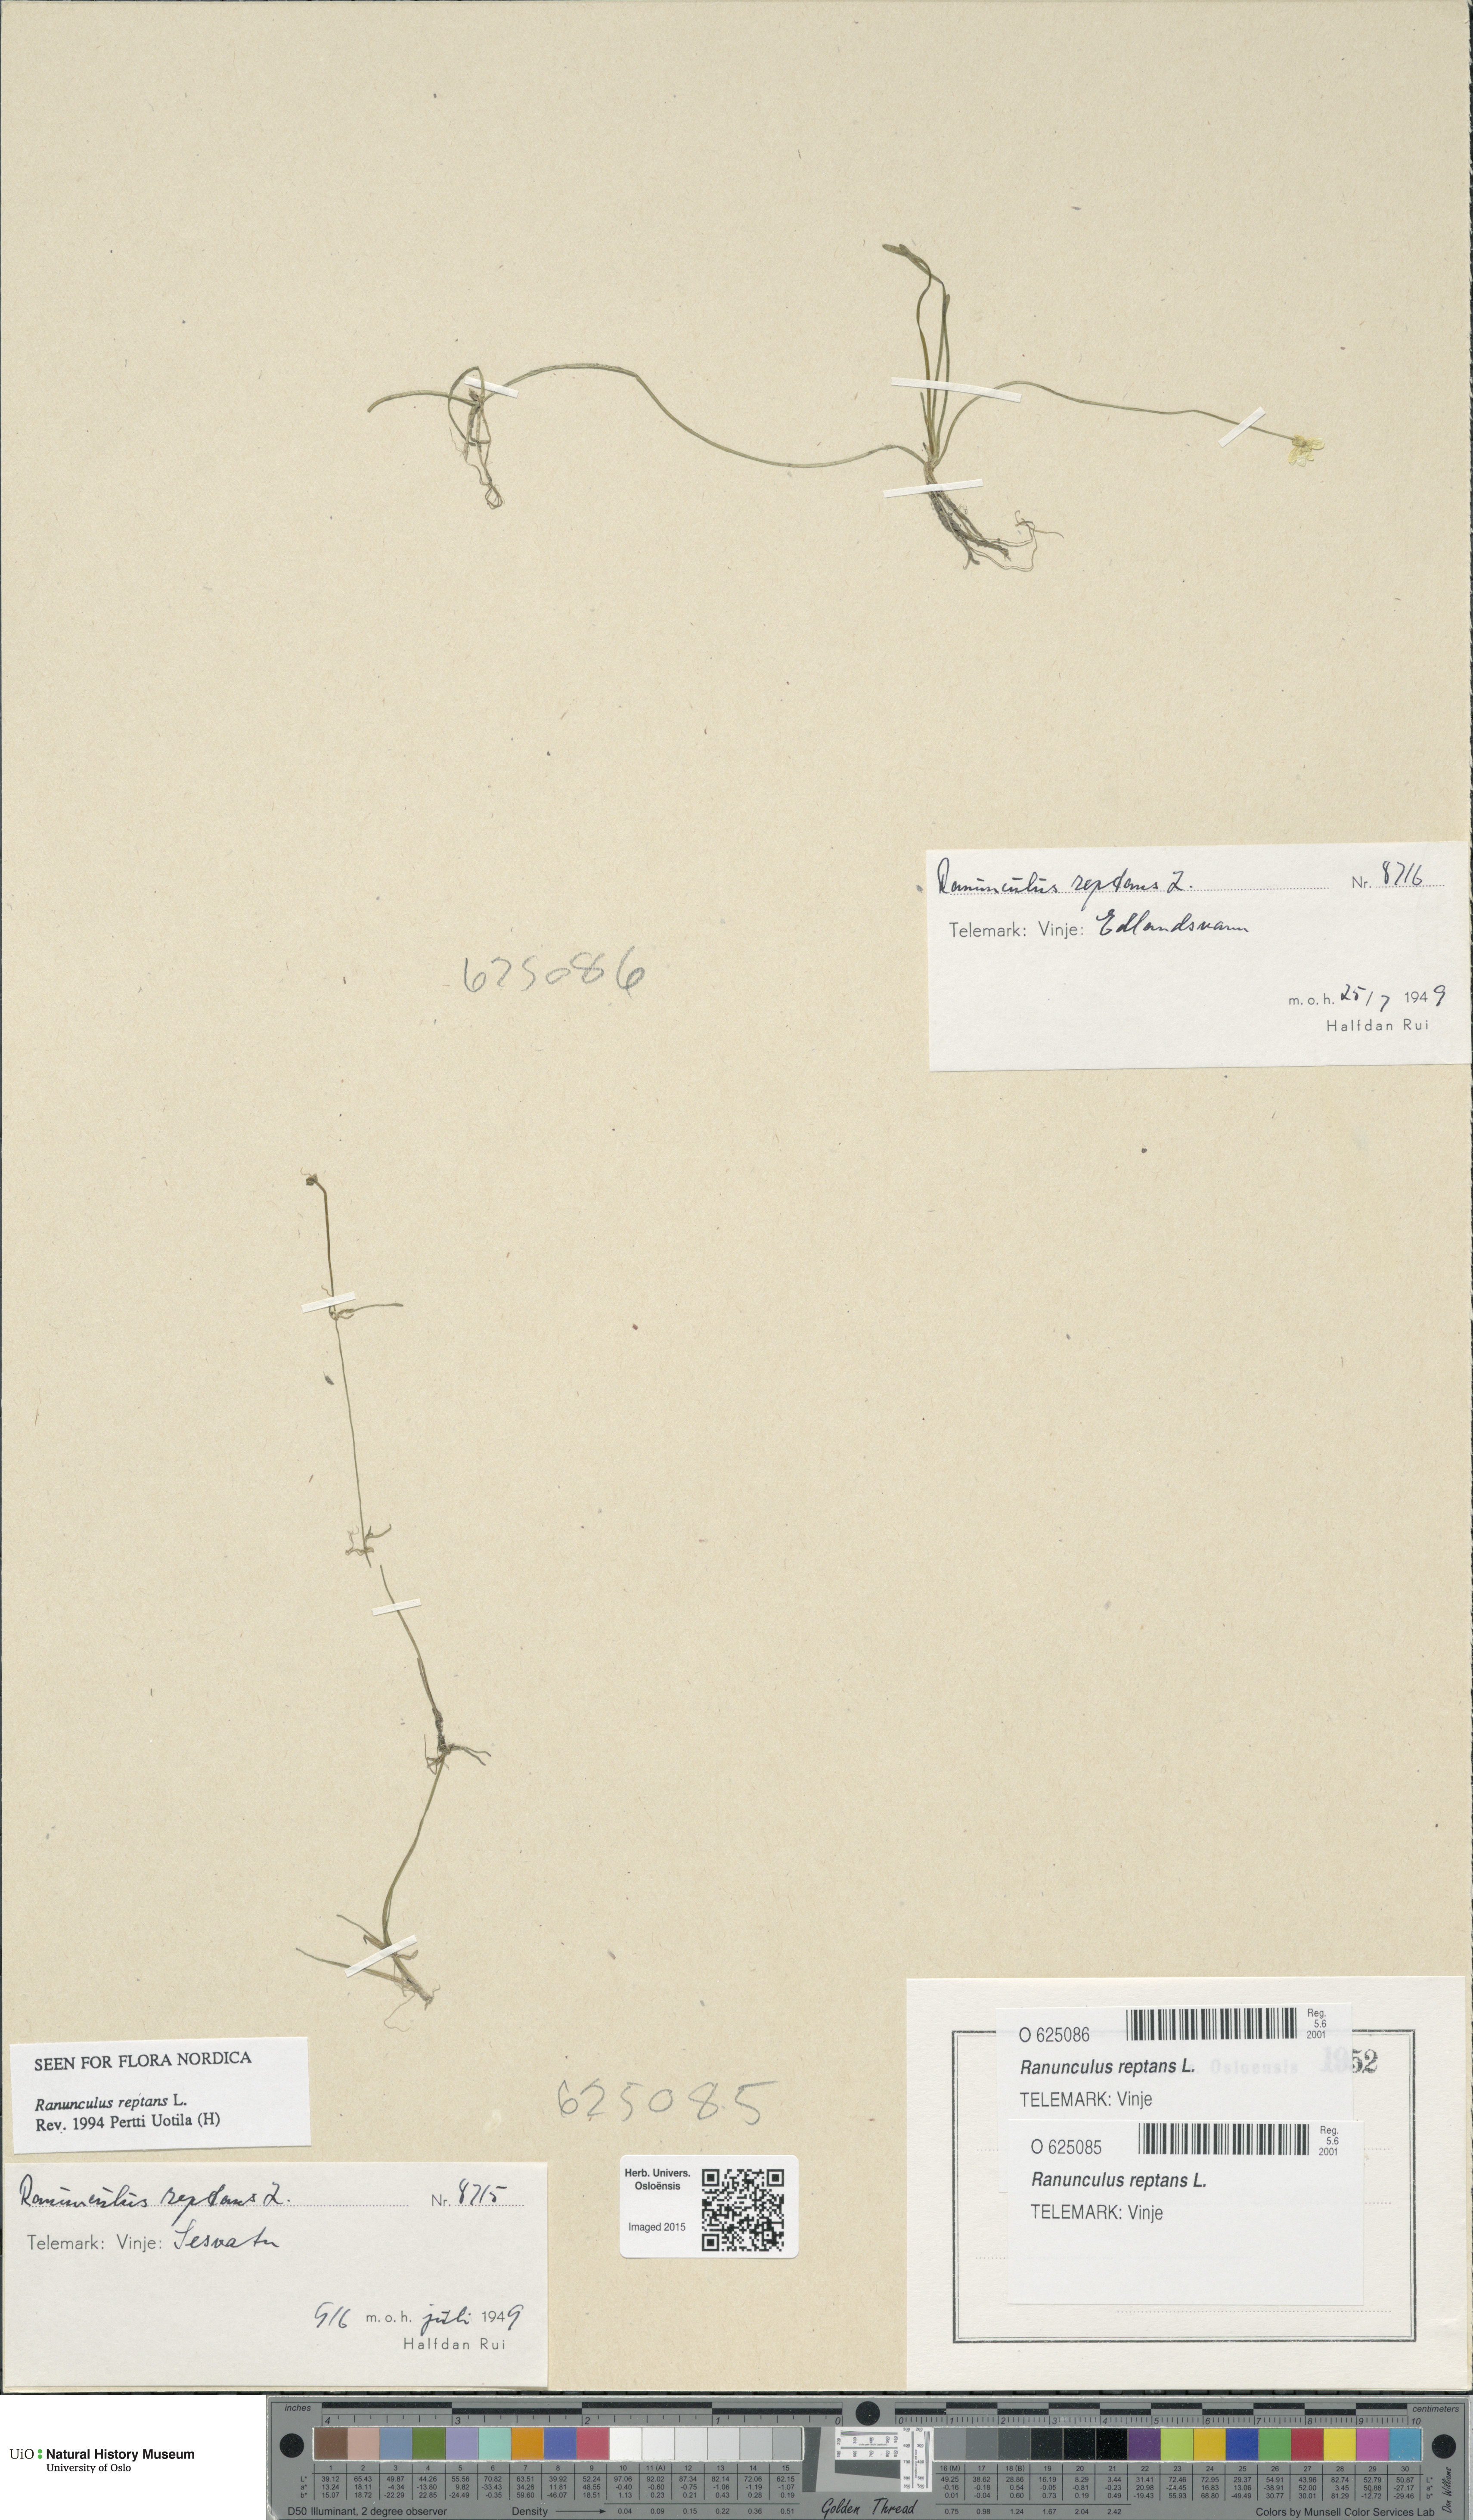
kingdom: Plantae
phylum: Tracheophyta
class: Magnoliopsida
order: Ranunculales
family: Ranunculaceae
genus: Ranunculus
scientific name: Ranunculus reptans
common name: Creeping spearwort
